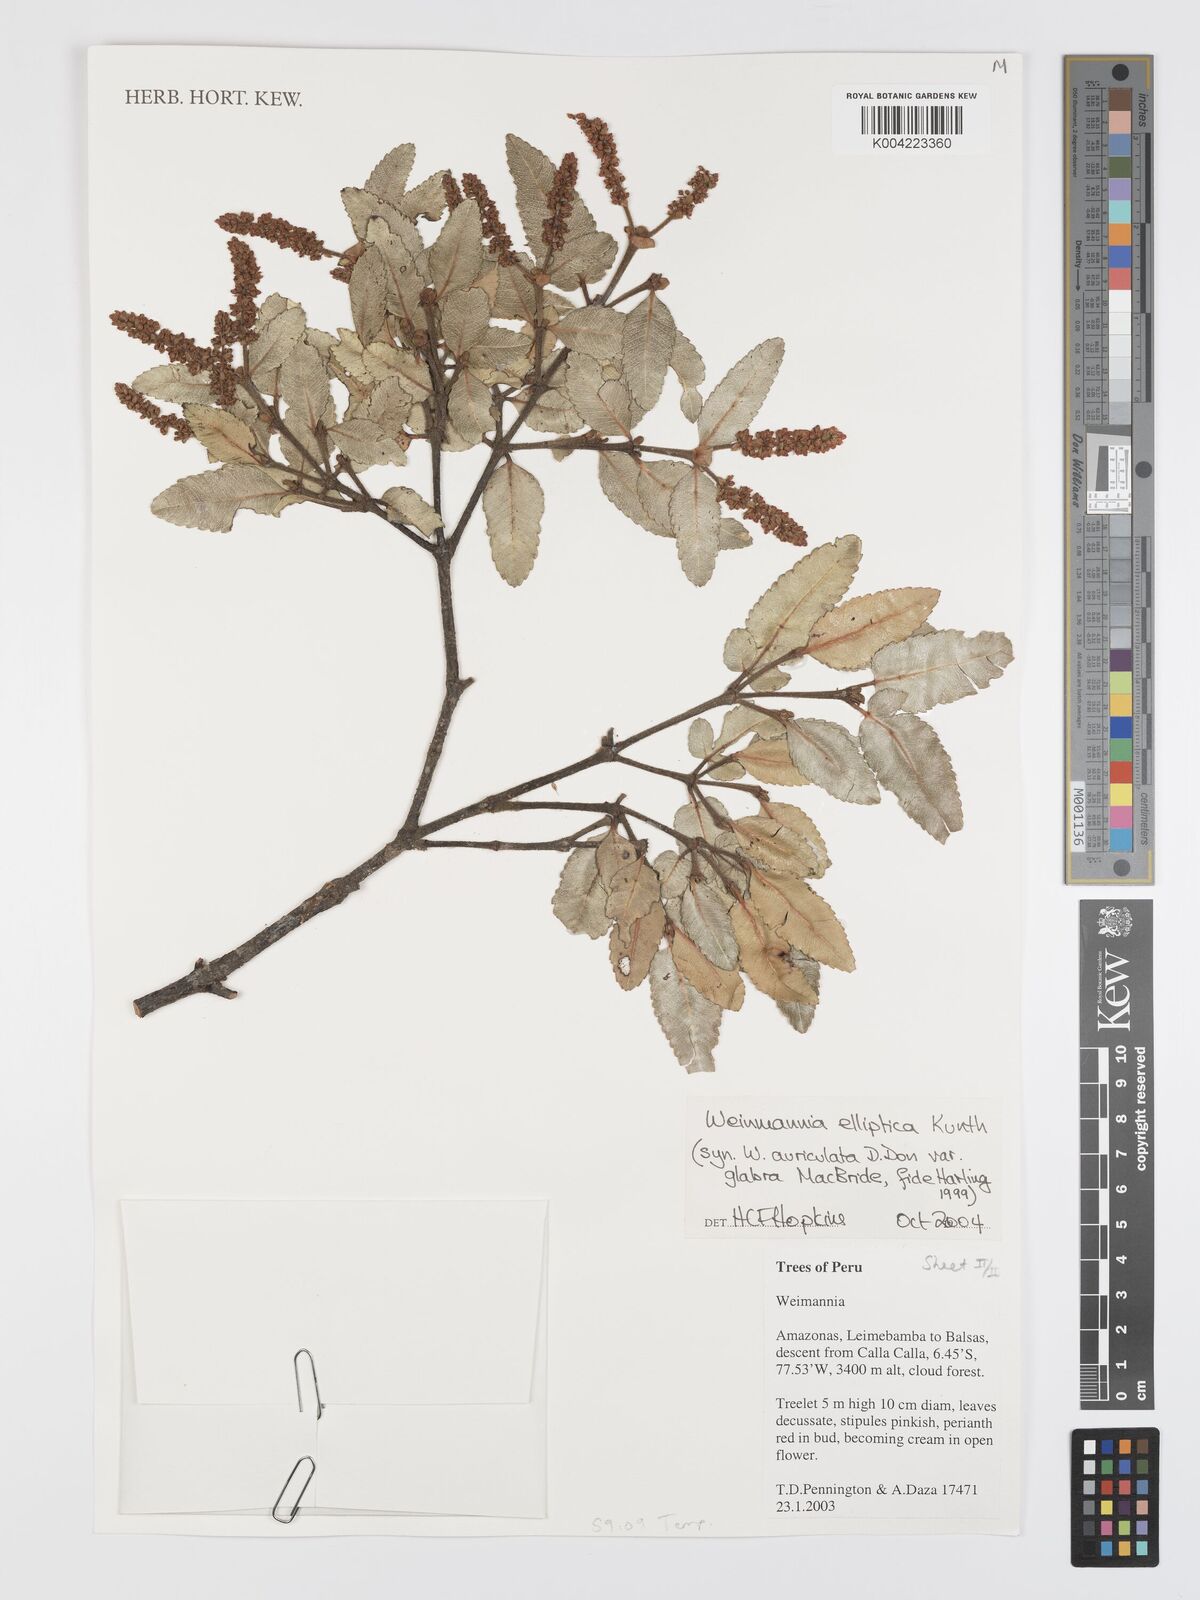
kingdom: Plantae
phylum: Tracheophyta
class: Magnoliopsida
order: Oxalidales
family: Cunoniaceae
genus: Weinmannia
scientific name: Weinmannia elliptica
